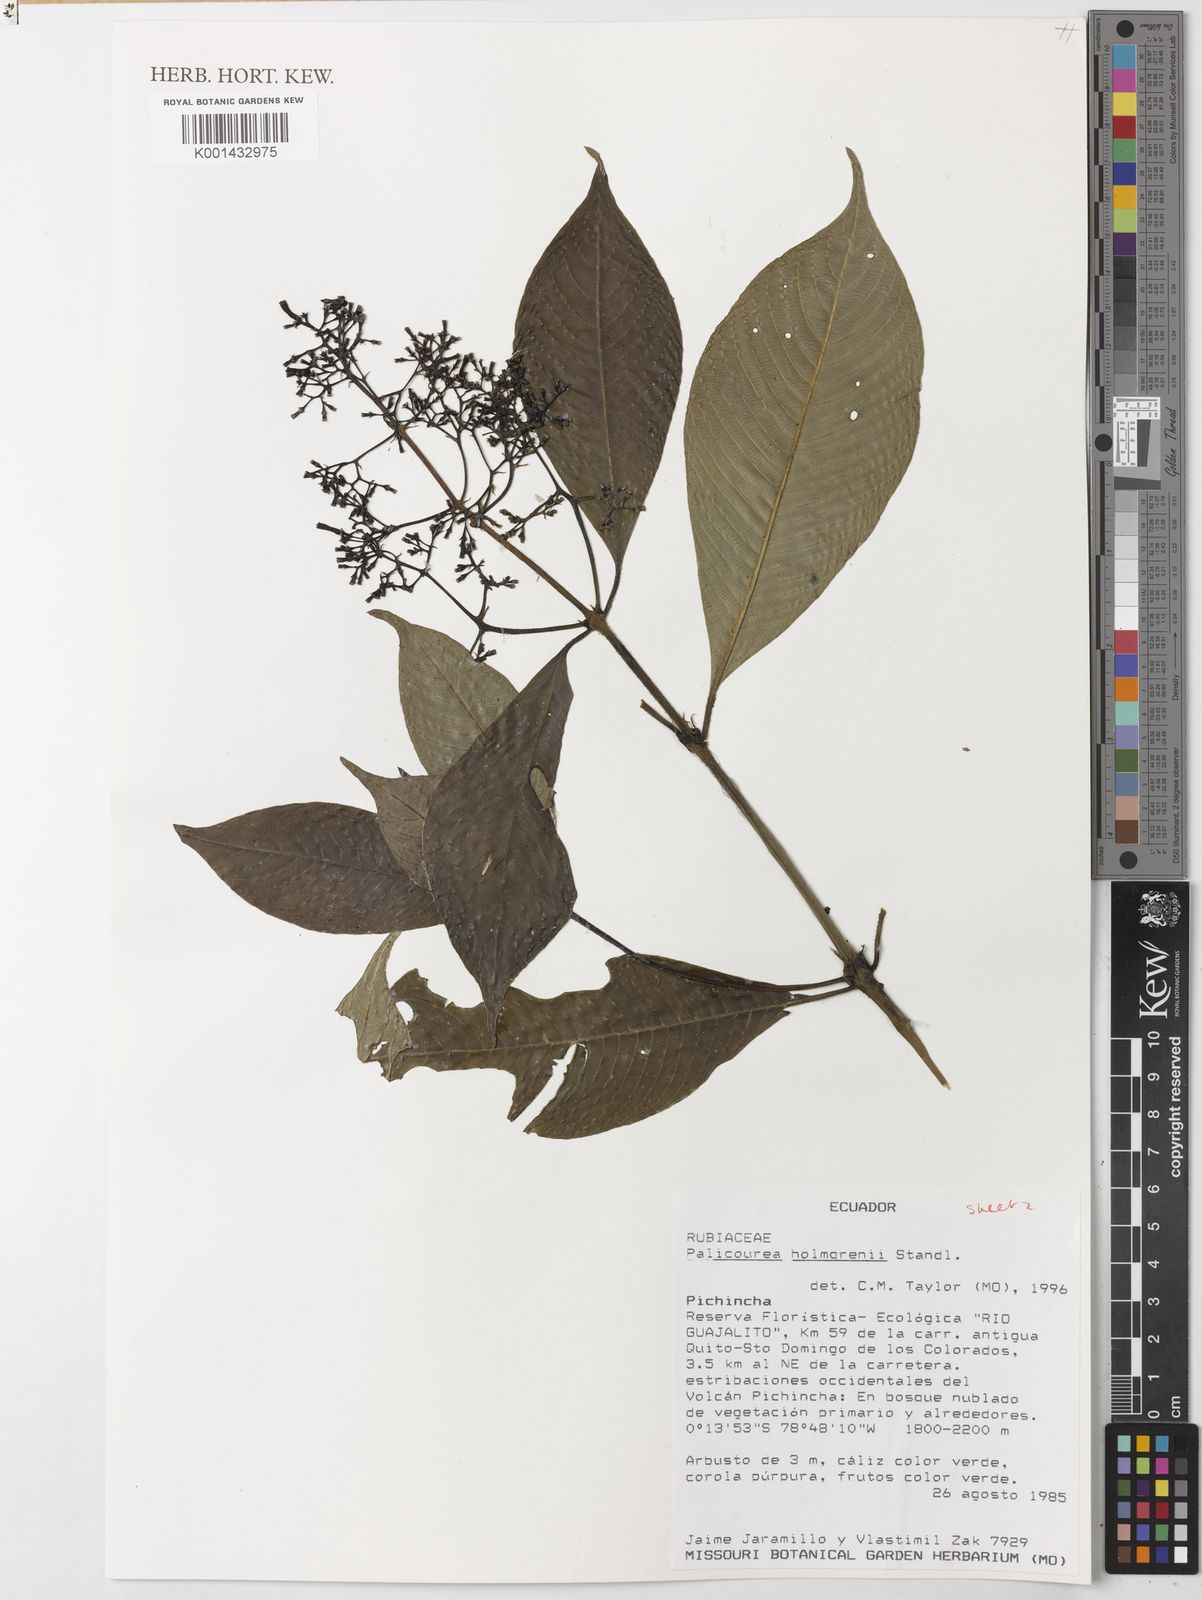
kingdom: Plantae
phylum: Tracheophyta
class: Magnoliopsida
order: Gentianales
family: Rubiaceae
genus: Palicourea
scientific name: Palicourea holmgrenii
